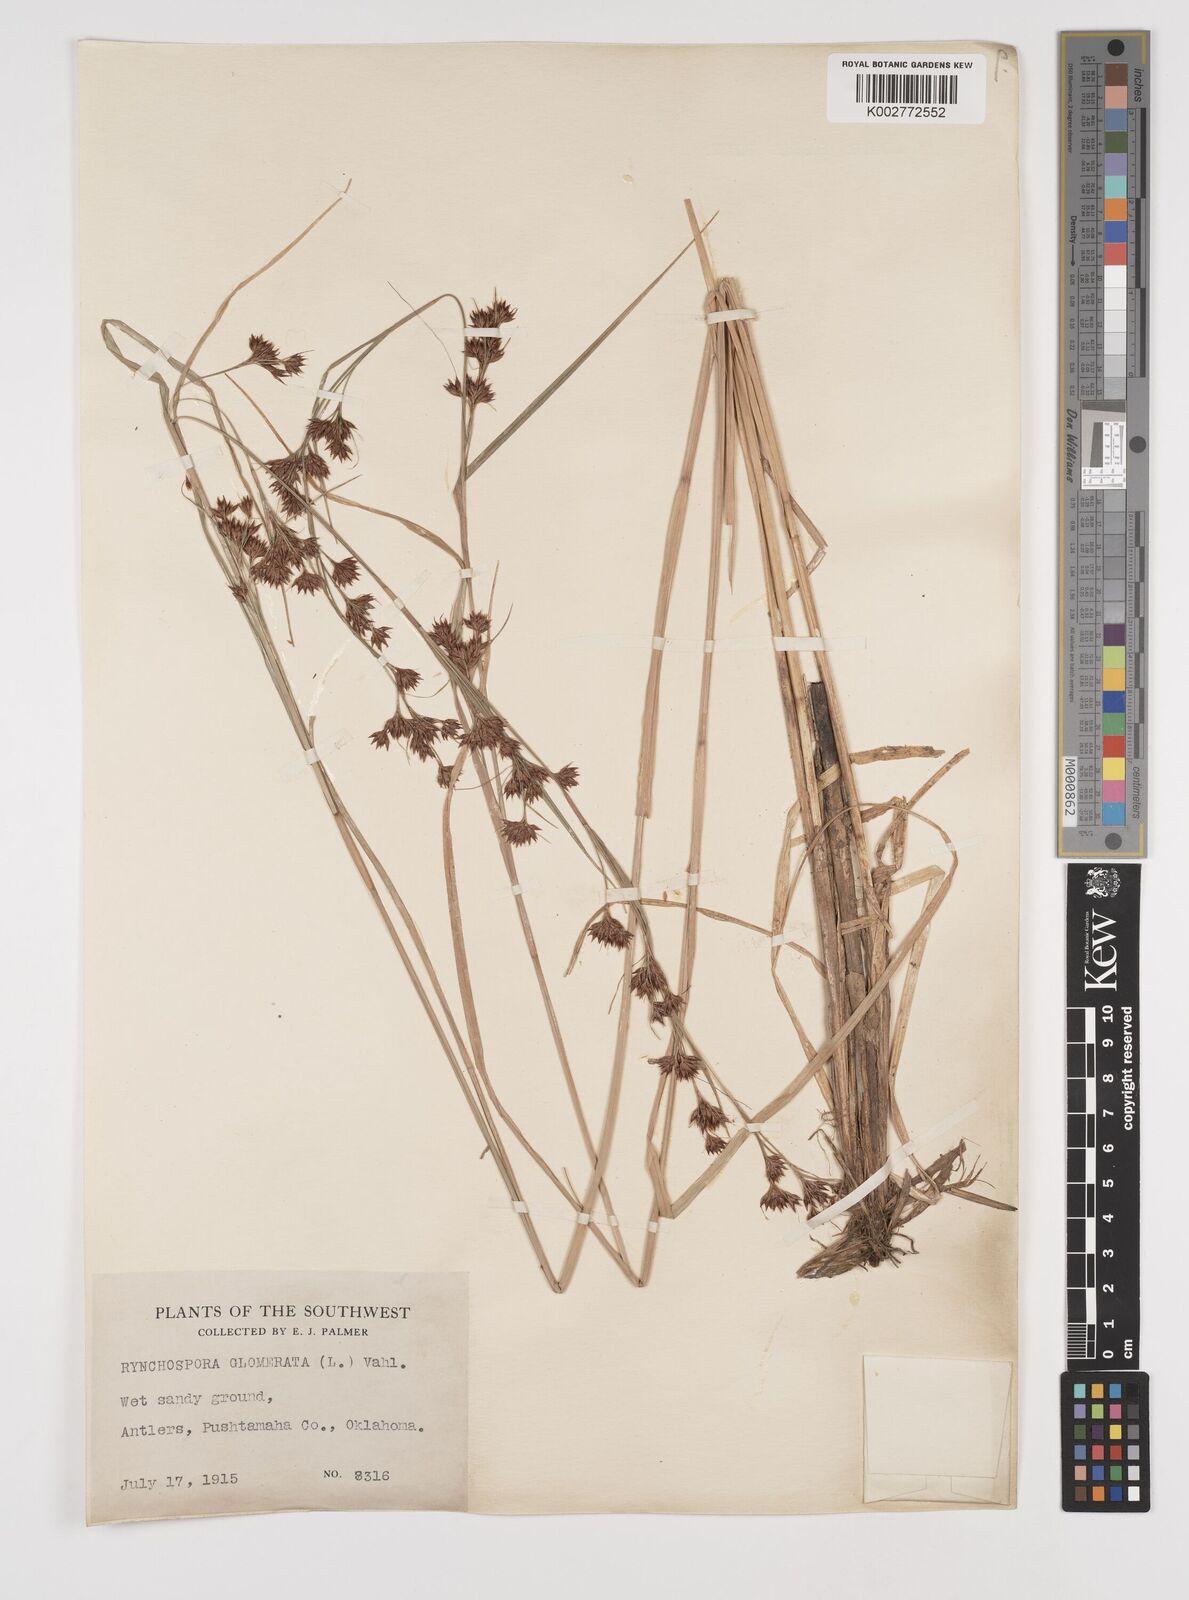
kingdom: Plantae
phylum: Tracheophyta
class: Liliopsida
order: Poales
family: Cyperaceae
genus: Rhynchospora
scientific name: Rhynchospora glomerata
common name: Cluster beak sedge
